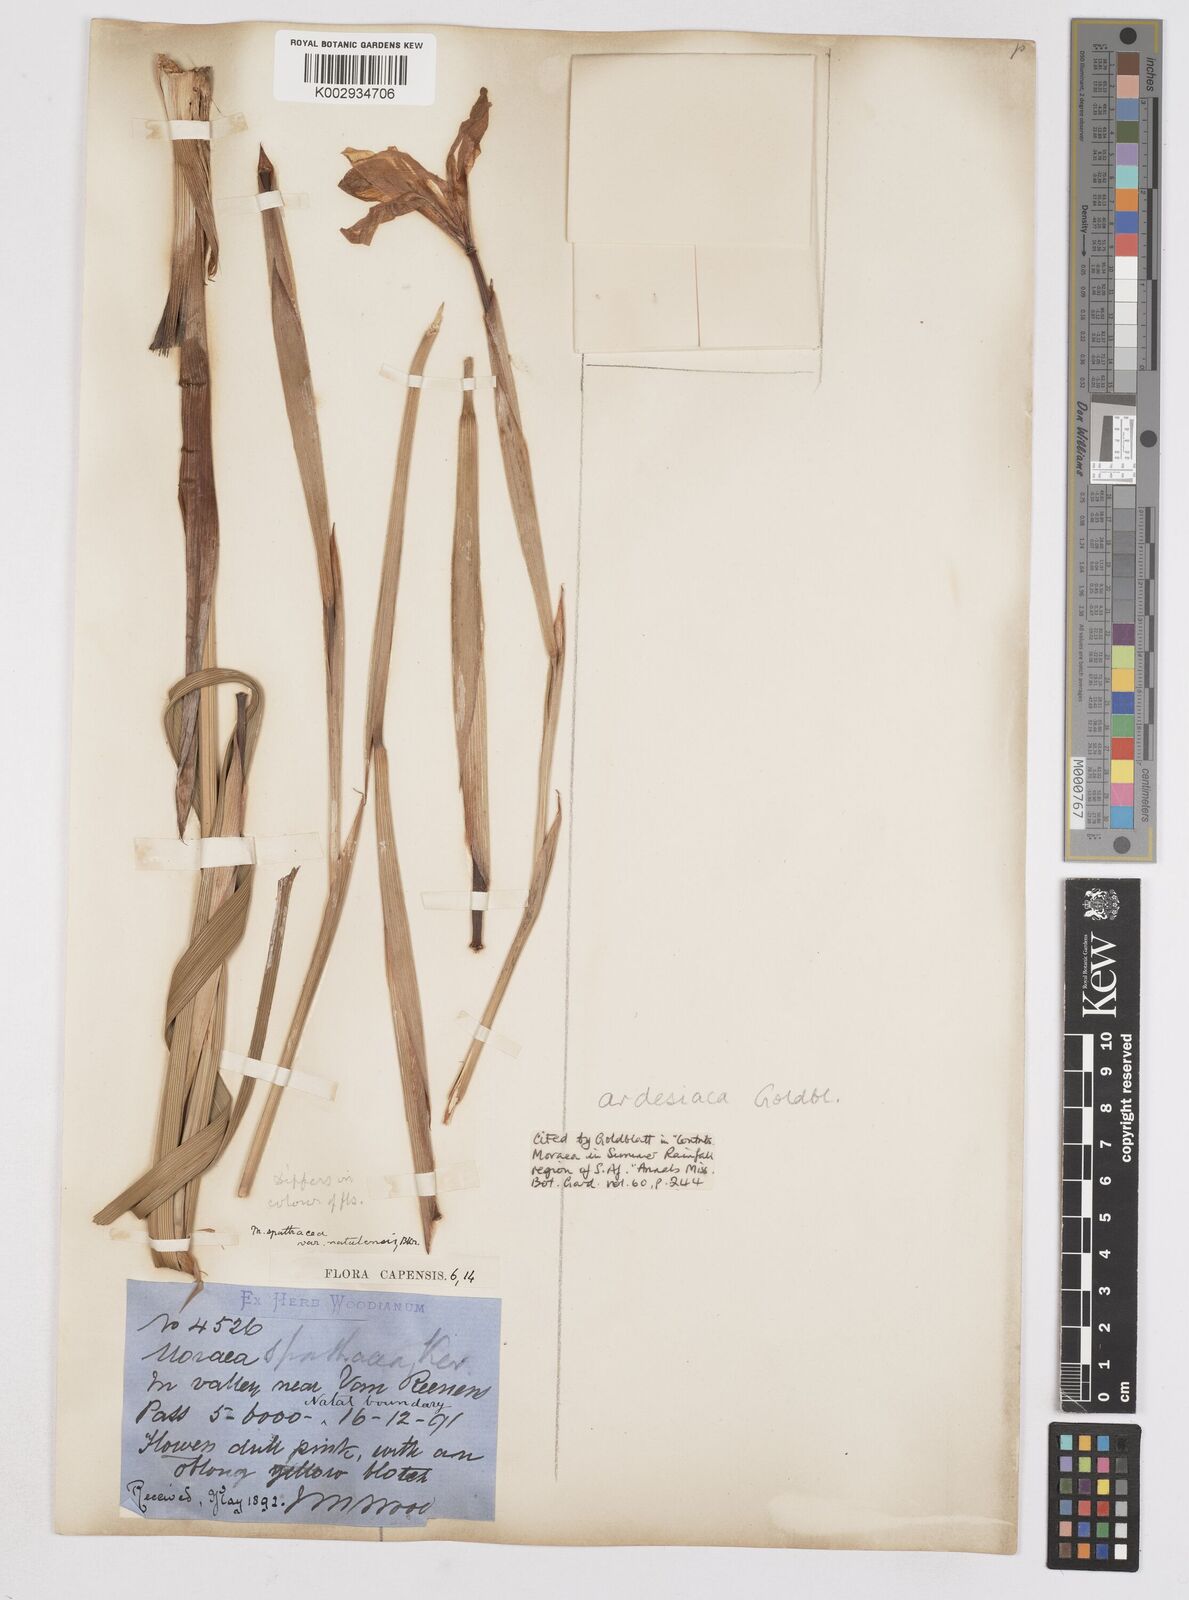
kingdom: Plantae
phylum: Tracheophyta
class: Liliopsida
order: Asparagales
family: Iridaceae
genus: Moraea
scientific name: Moraea ardesiaca
